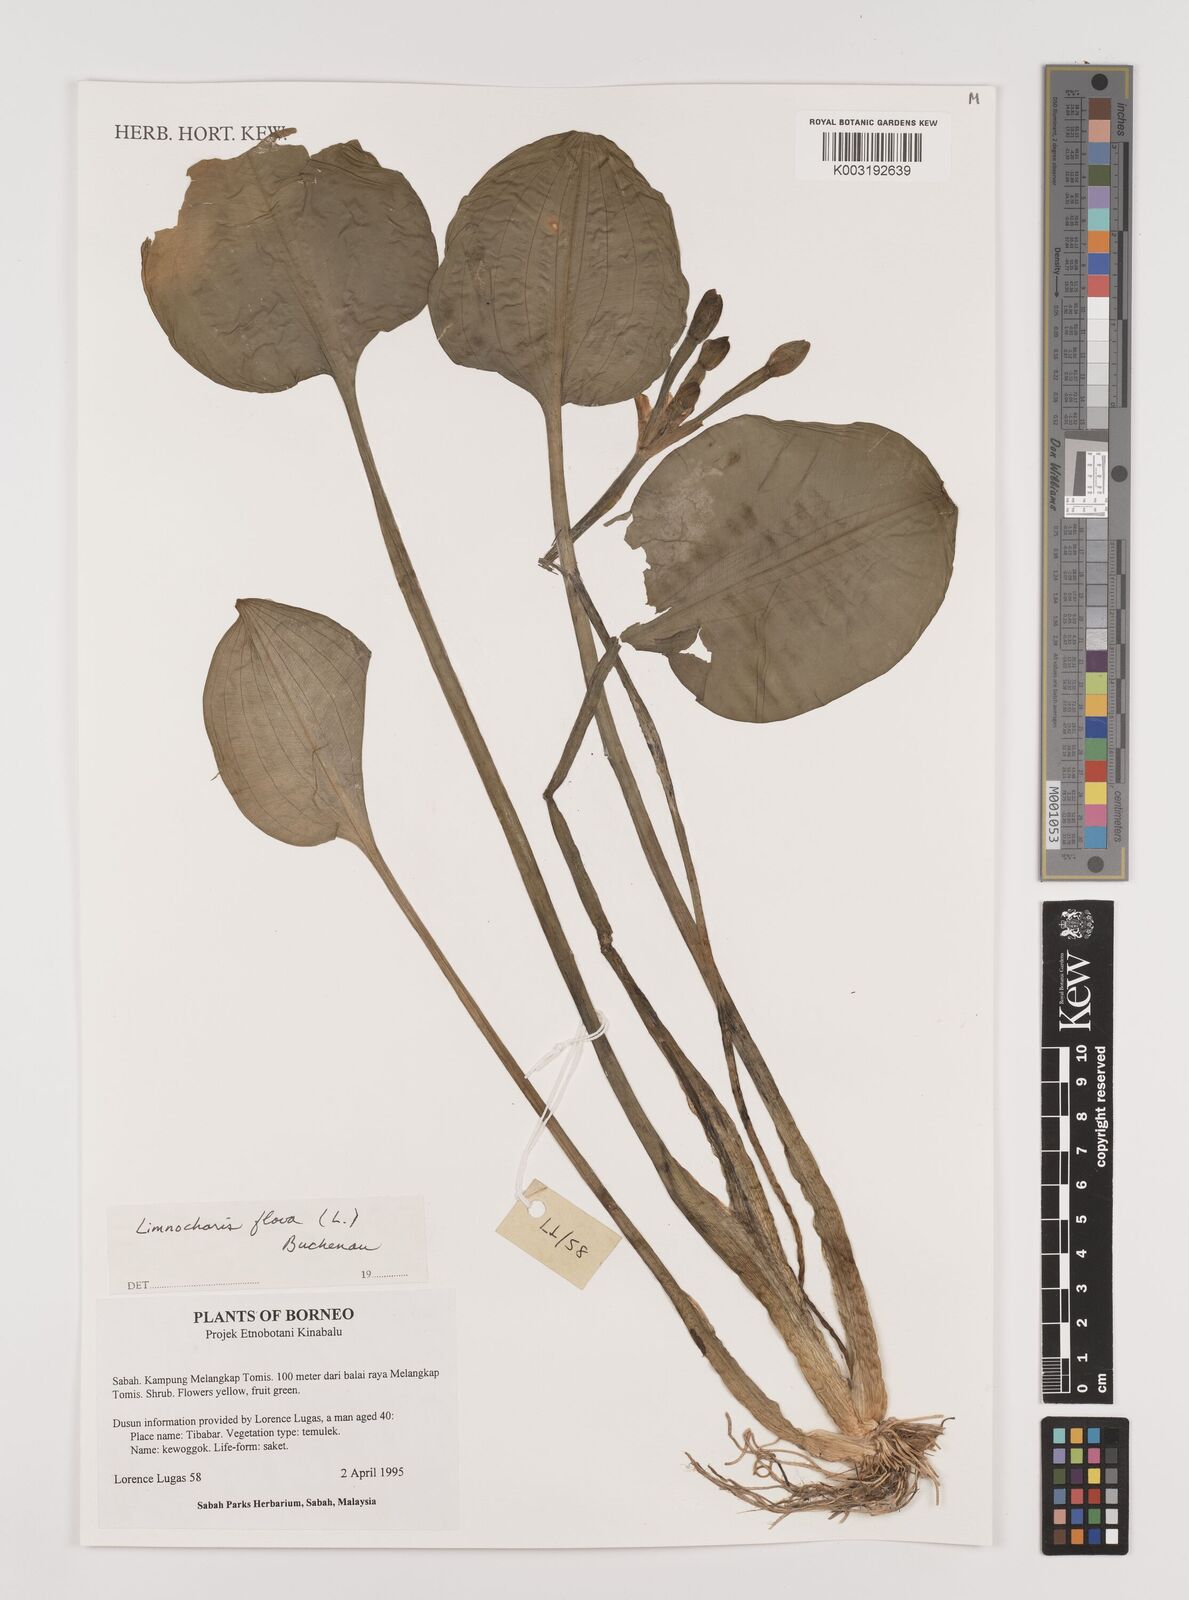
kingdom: Plantae
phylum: Tracheophyta
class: Liliopsida
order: Alismatales
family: Alismataceae
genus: Limnocharis
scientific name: Limnocharis flava
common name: Sawah-flower-rush
